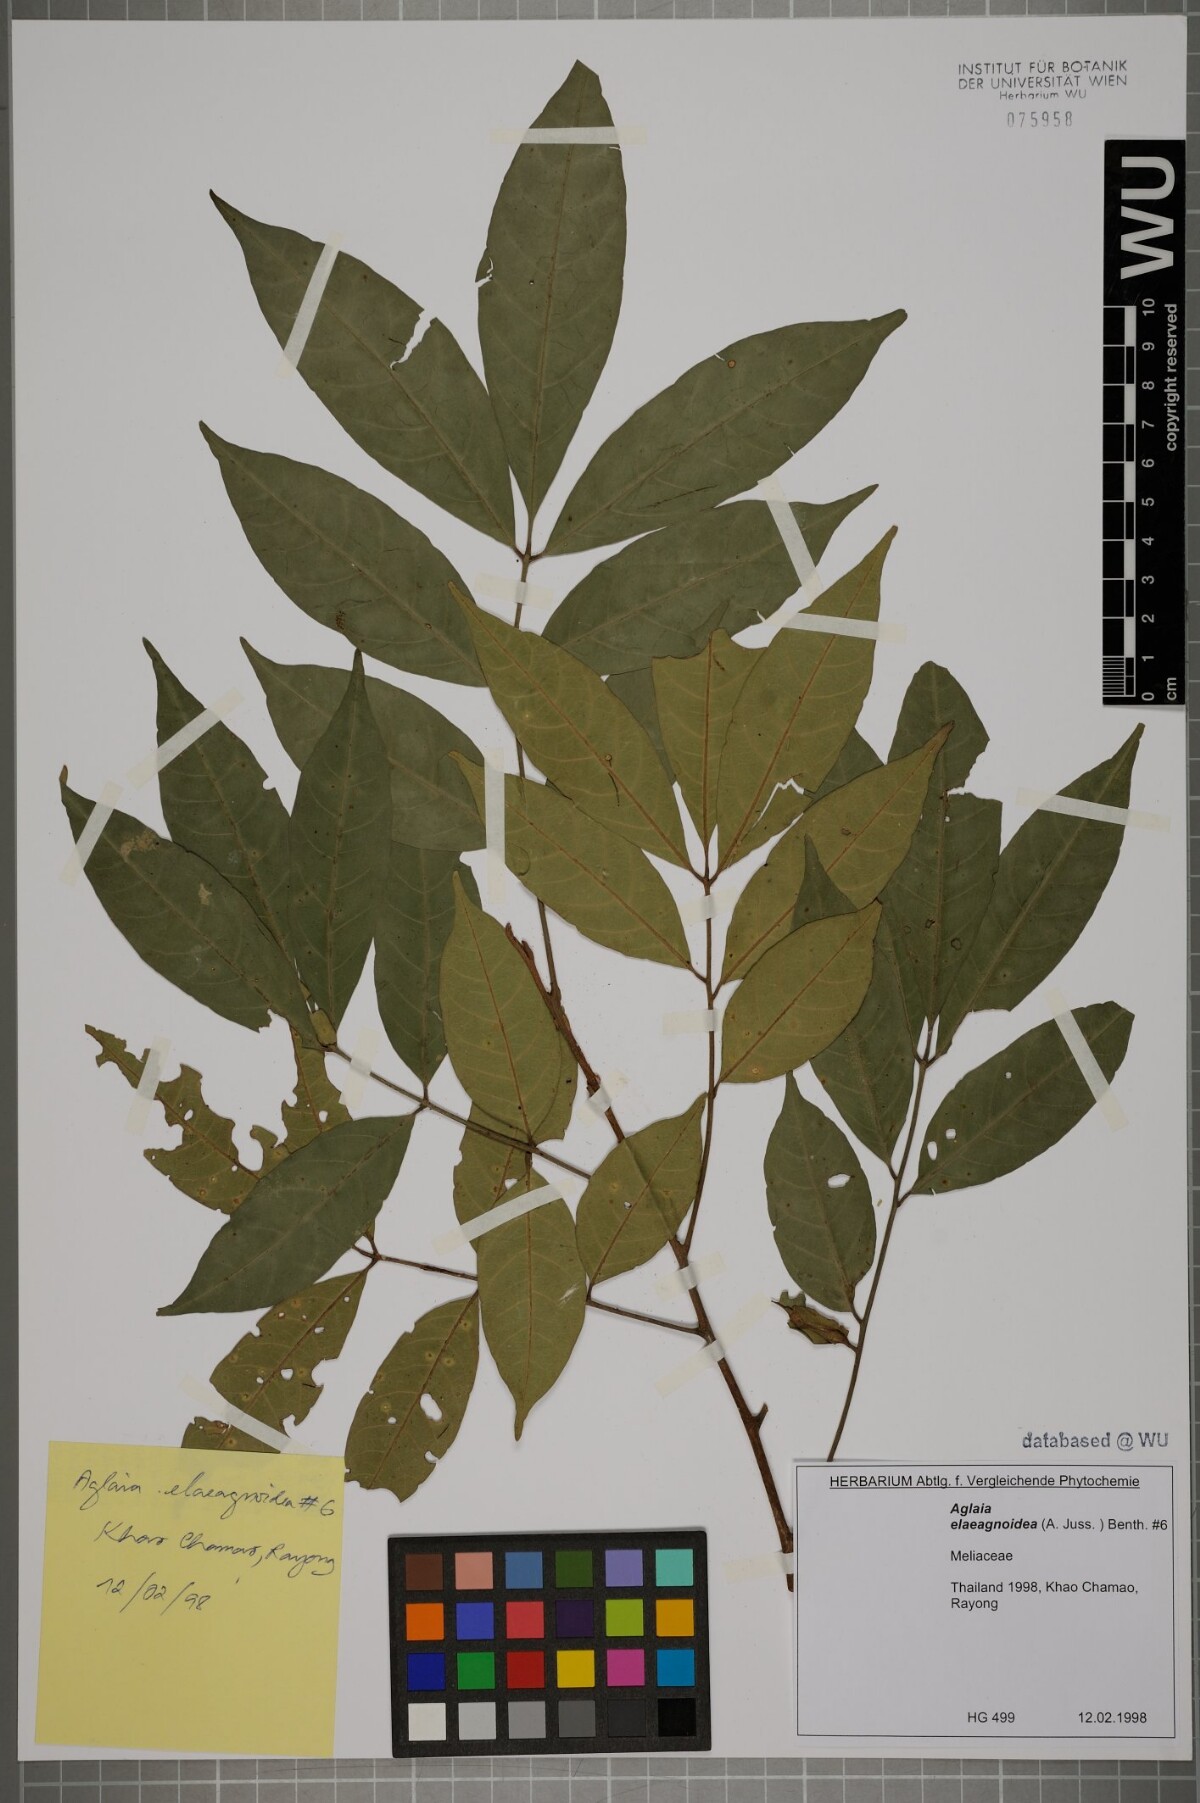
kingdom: Plantae
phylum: Tracheophyta
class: Magnoliopsida
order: Sapindales
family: Meliaceae
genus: Aglaia
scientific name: Aglaia elaeagnoidea
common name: Droopyleaf
